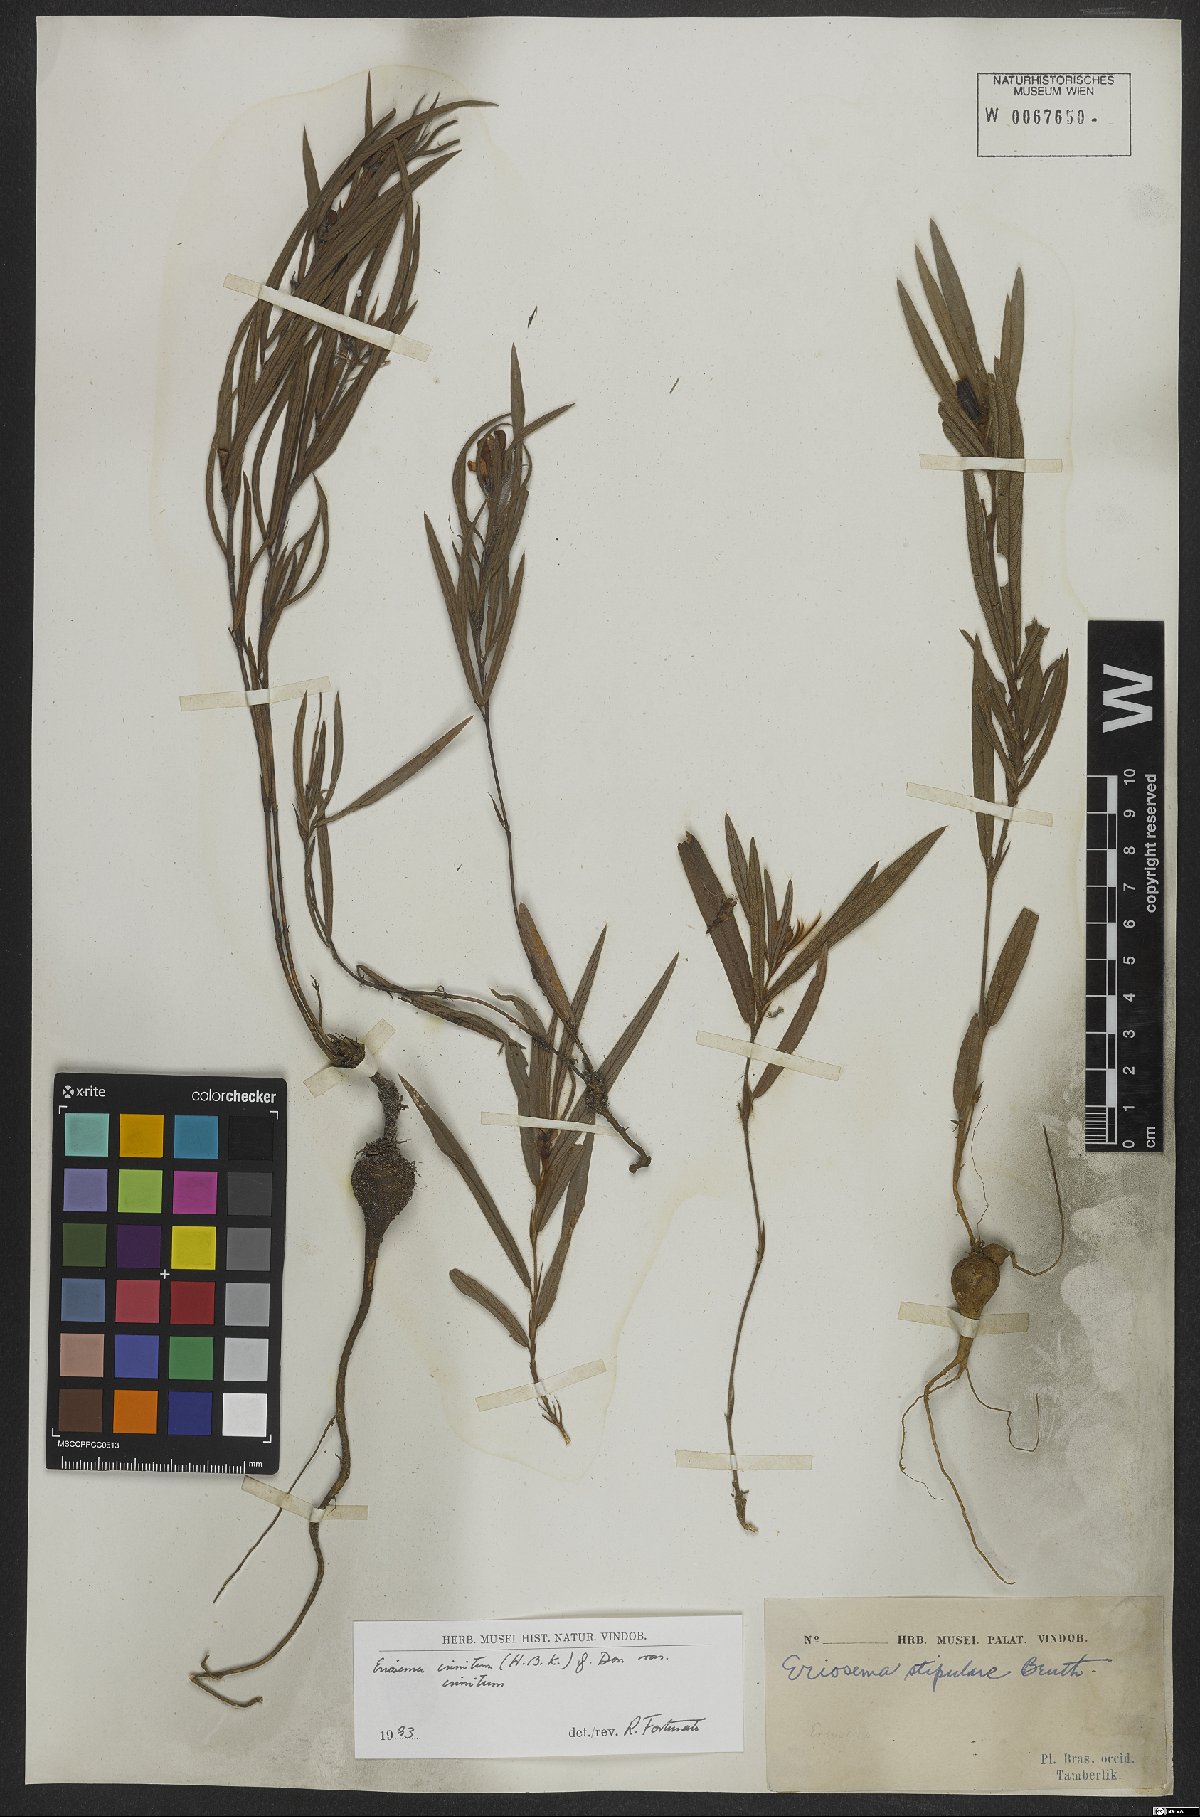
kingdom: Plantae
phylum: Tracheophyta
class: Magnoliopsida
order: Fabales
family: Fabaceae
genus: Eriosema
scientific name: Eriosema crinitum
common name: Sand pea
